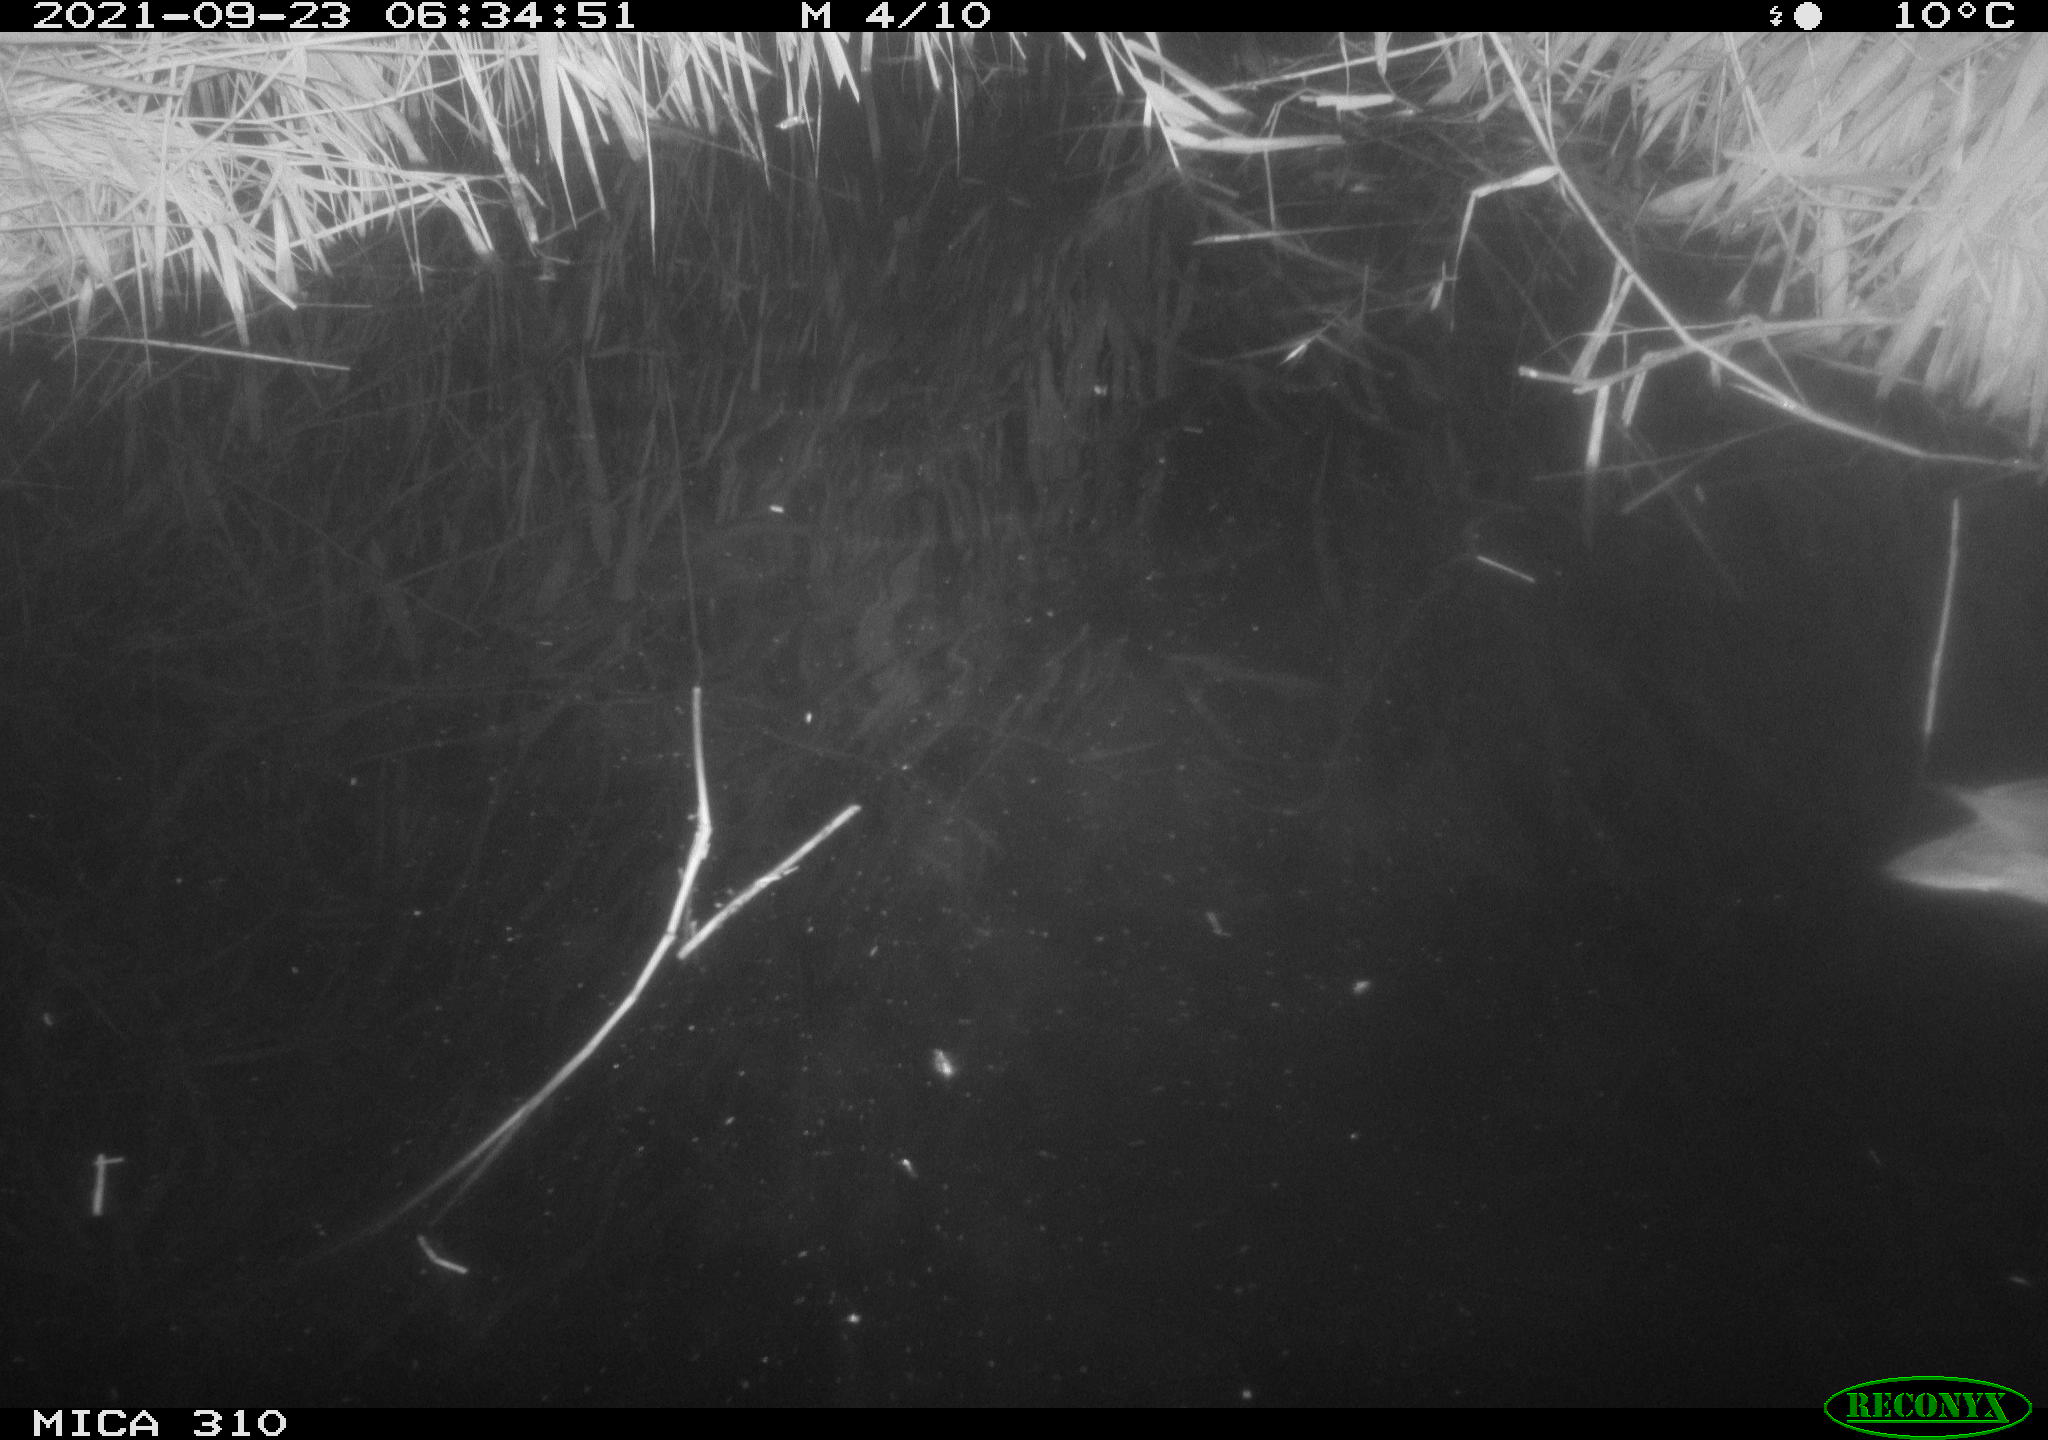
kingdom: Animalia
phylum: Chordata
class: Aves
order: Anseriformes
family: Anatidae
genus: Mareca
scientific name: Mareca strepera
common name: Gadwall
